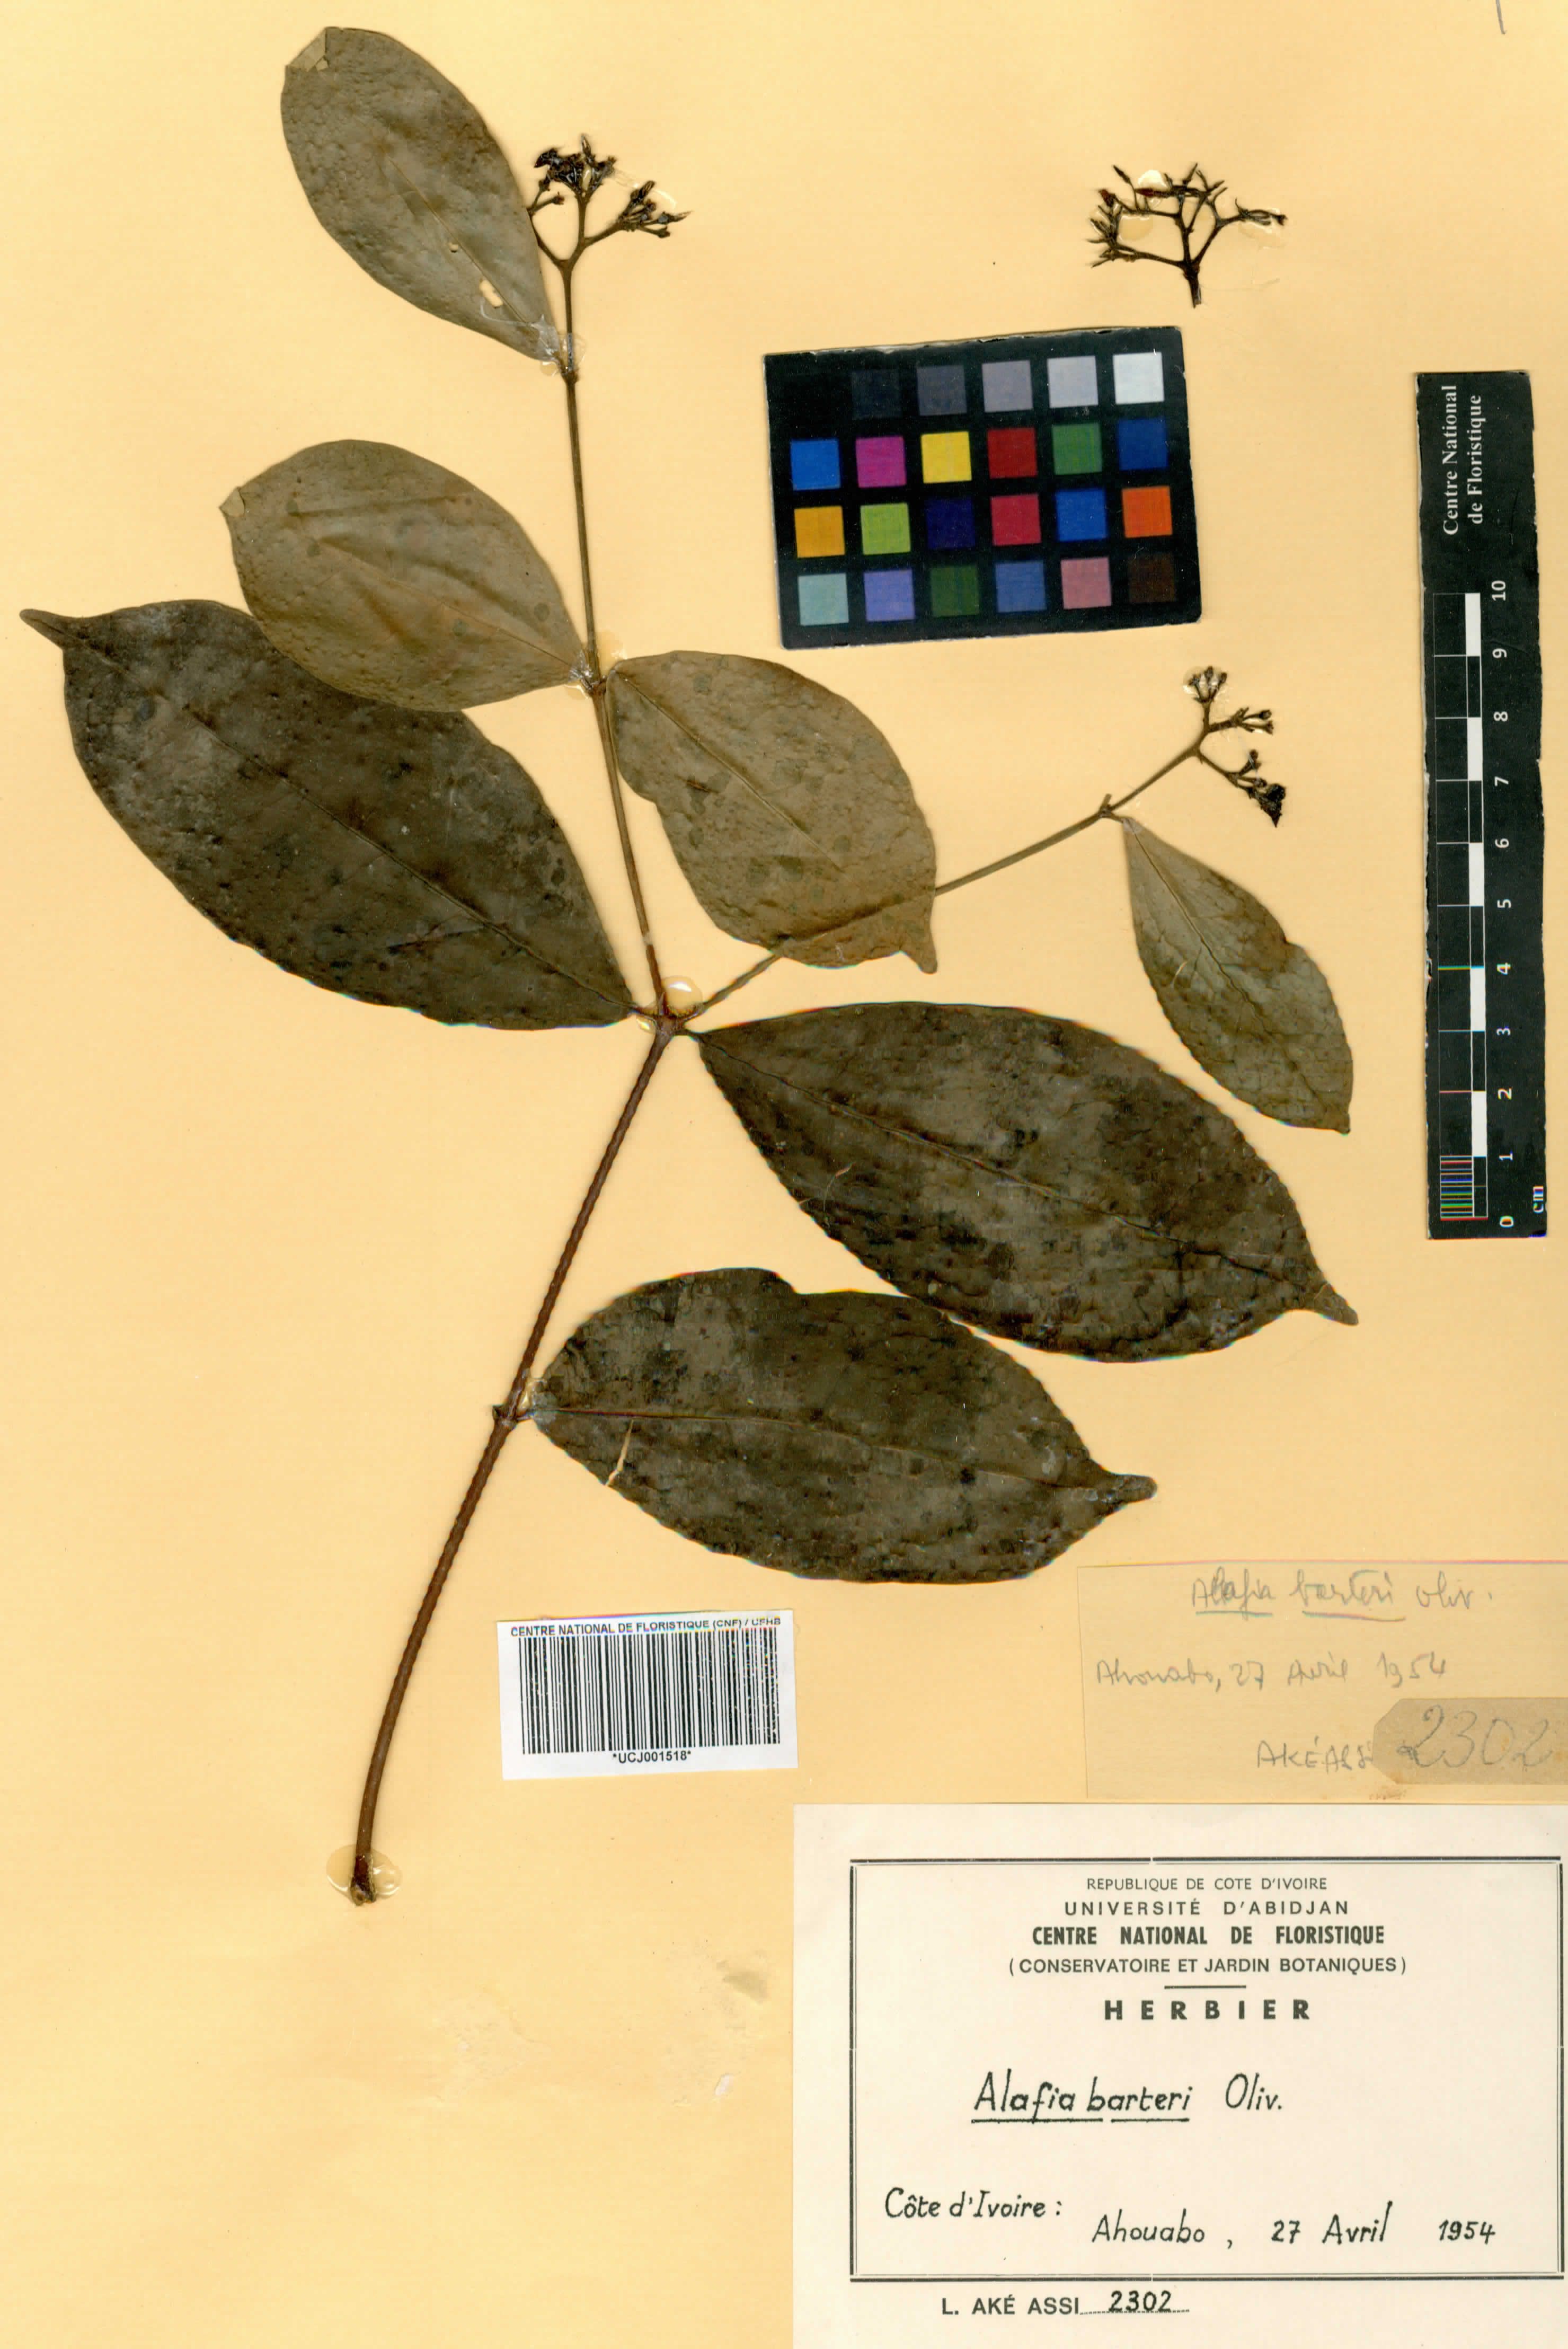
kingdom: Plantae
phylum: Tracheophyta
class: Magnoliopsida
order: Gentianales
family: Apocynaceae
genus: Alafia
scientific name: Alafia barteri
